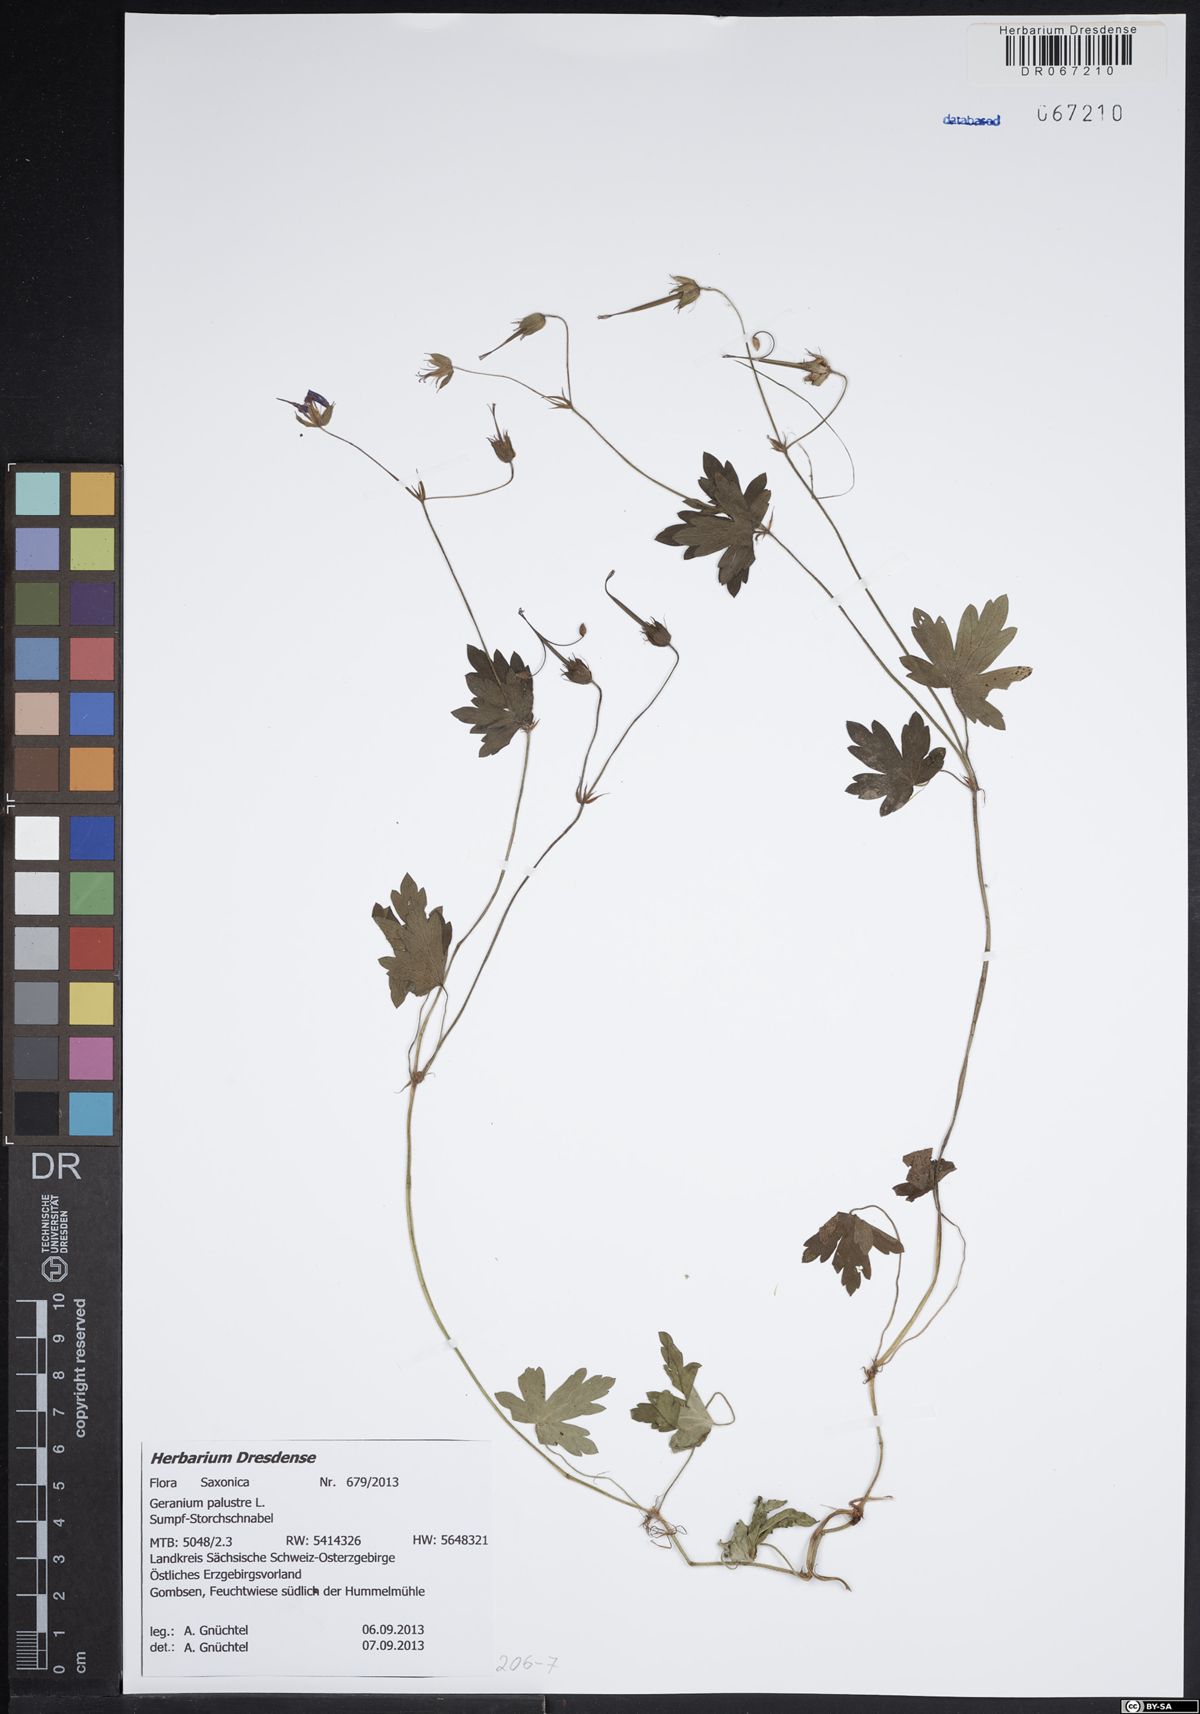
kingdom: Plantae
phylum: Tracheophyta
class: Magnoliopsida
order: Geraniales
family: Geraniaceae
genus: Geranium
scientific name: Geranium palustre
